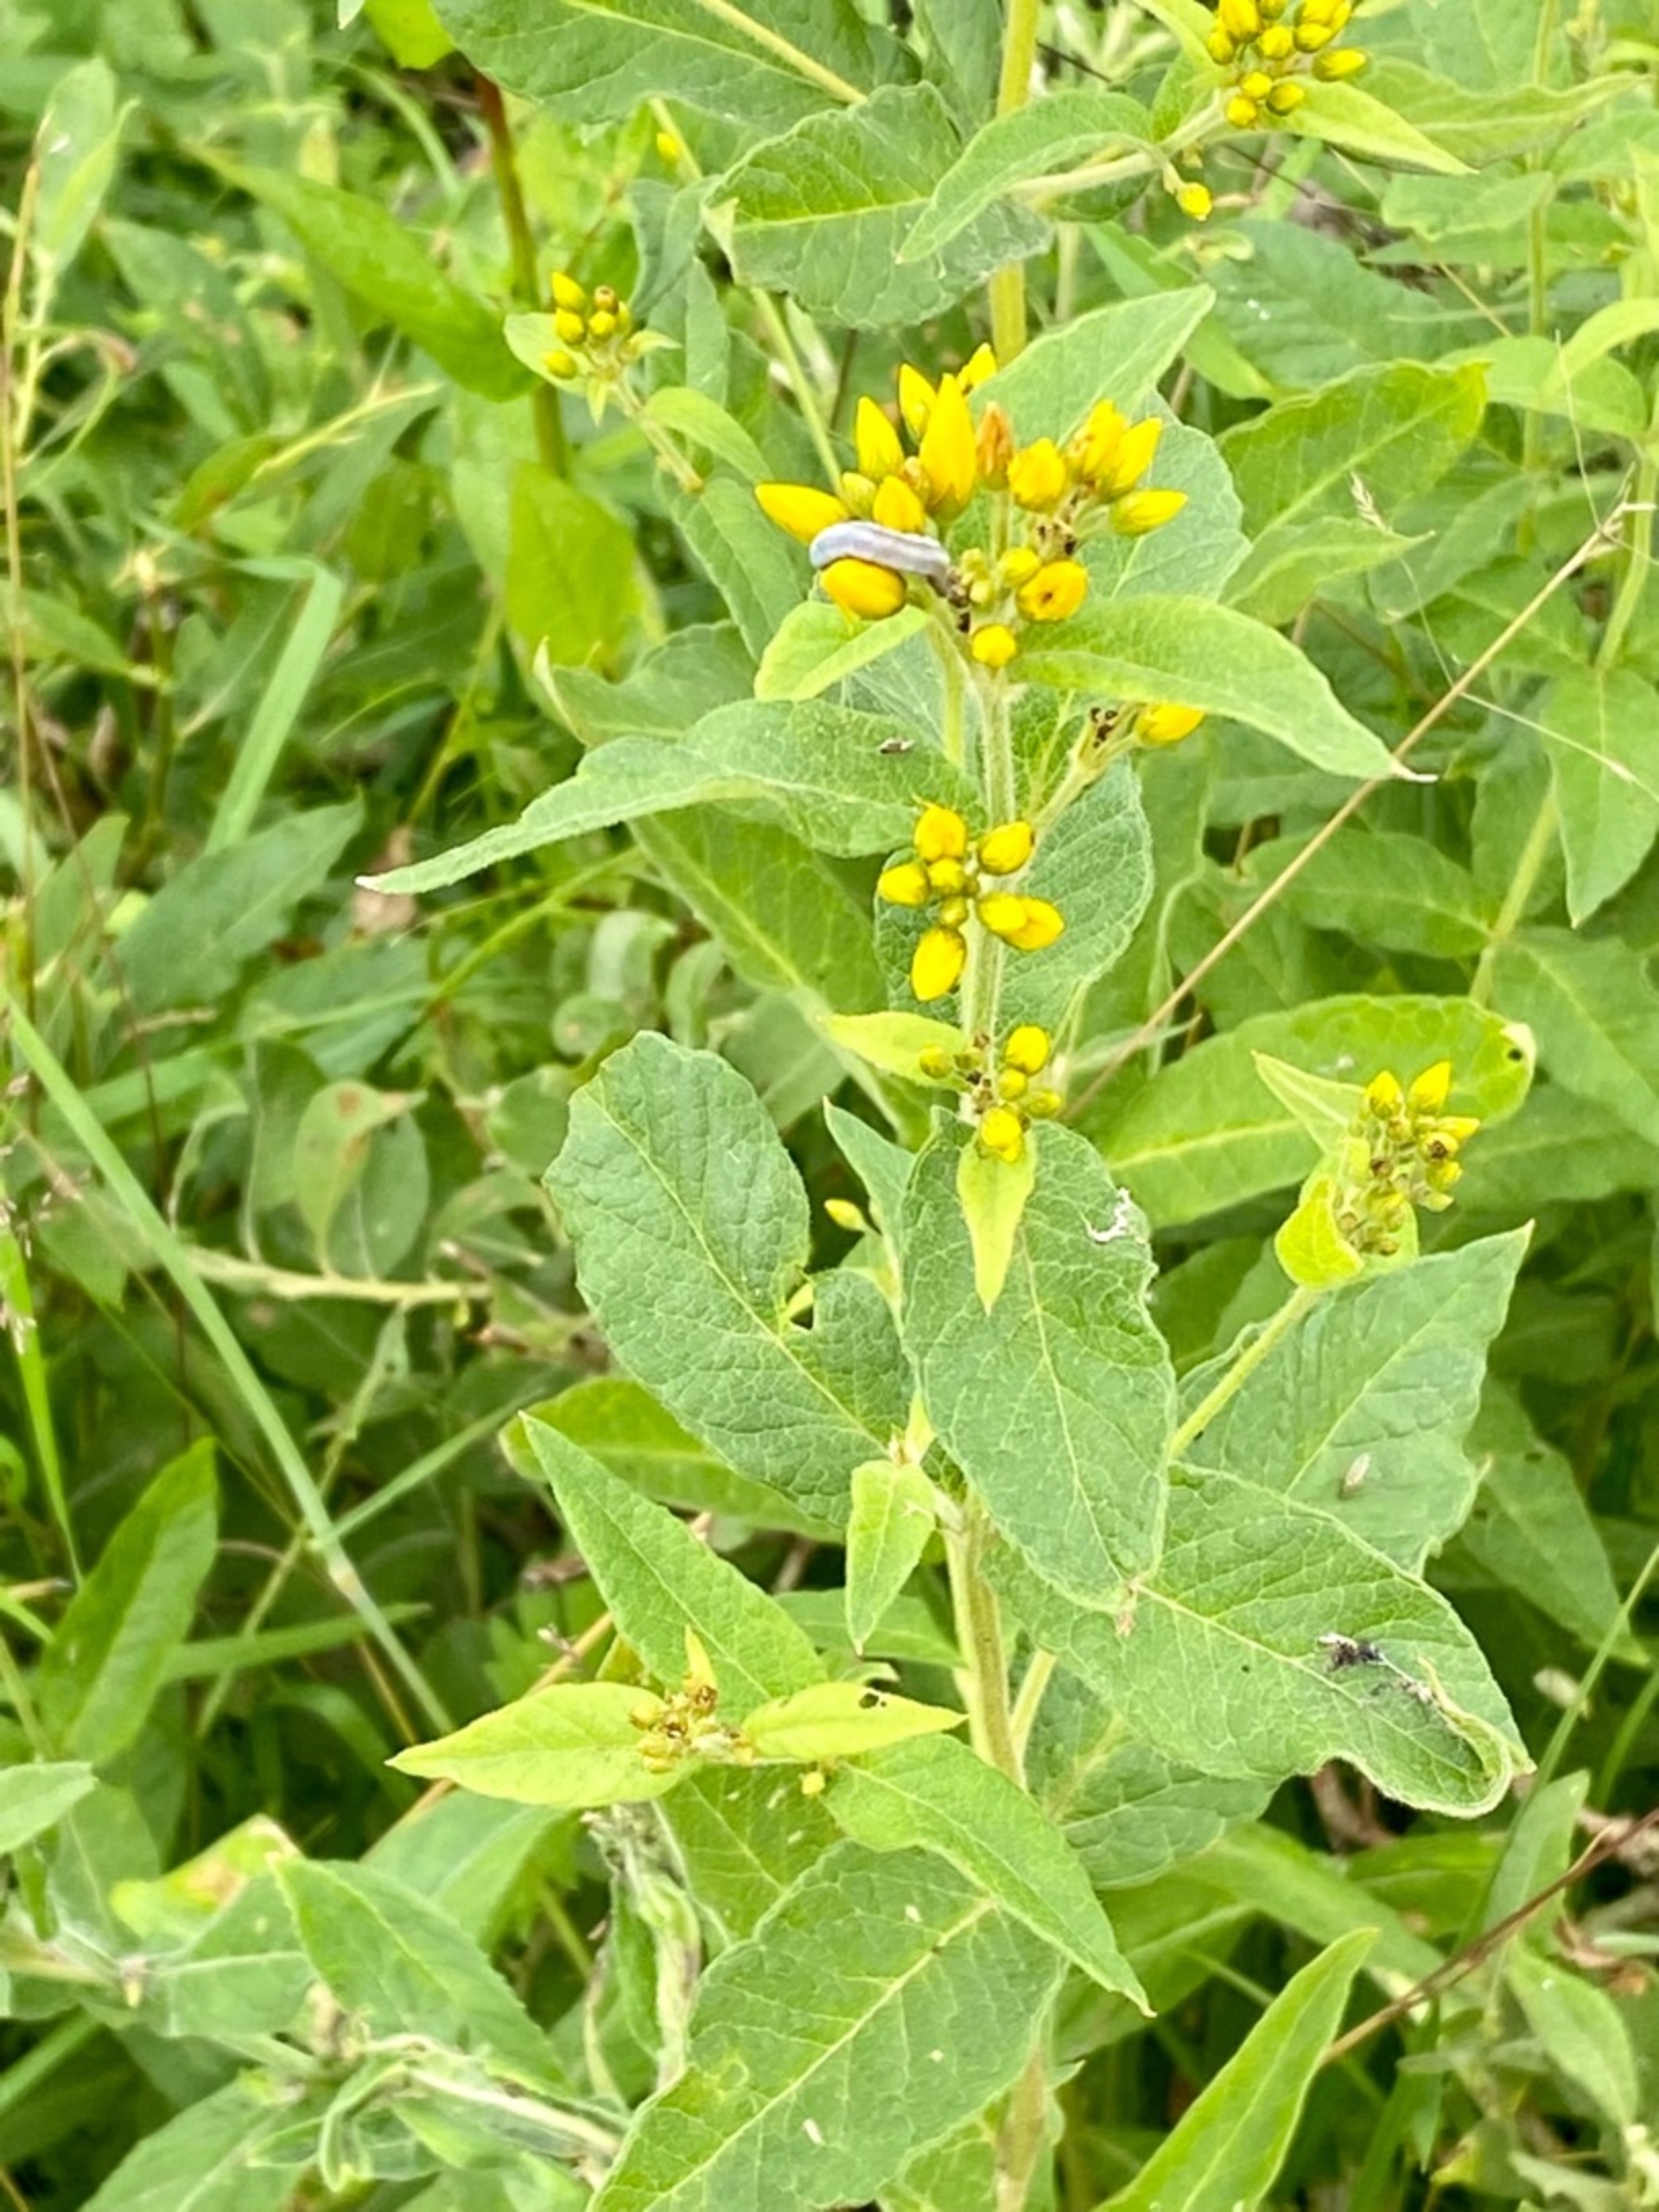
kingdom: Plantae
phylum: Tracheophyta
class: Magnoliopsida
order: Ericales
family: Primulaceae
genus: Lysimachia
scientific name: Lysimachia vulgaris
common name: Almindelig fredløs
